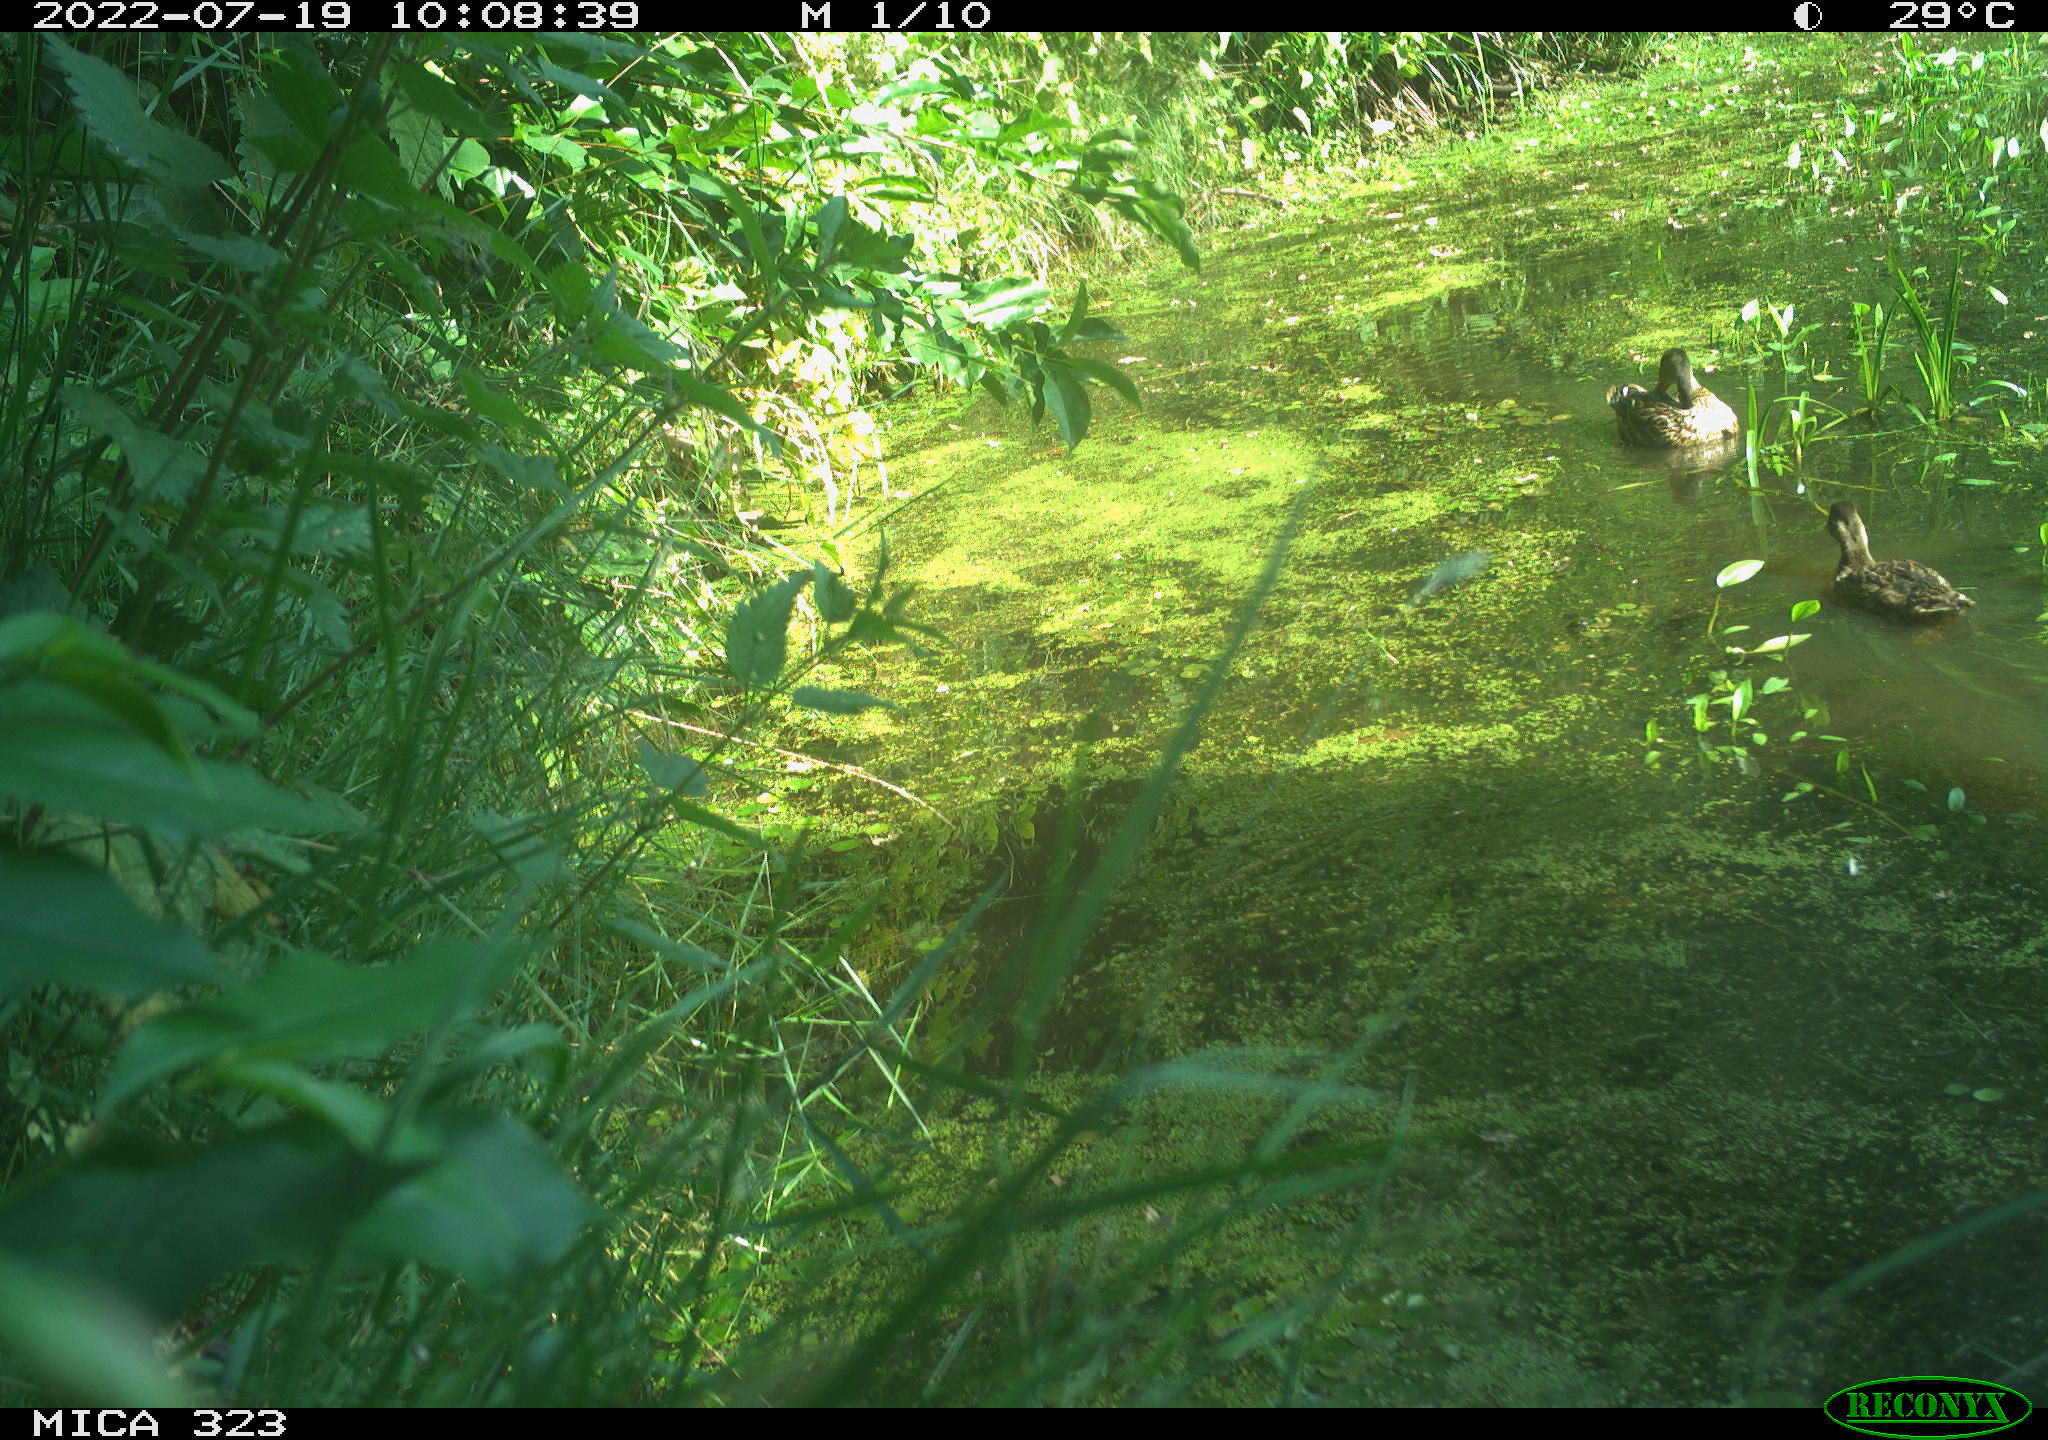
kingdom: Animalia
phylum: Chordata
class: Aves
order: Anseriformes
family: Anatidae
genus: Anas
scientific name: Anas platyrhynchos
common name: Mallard
